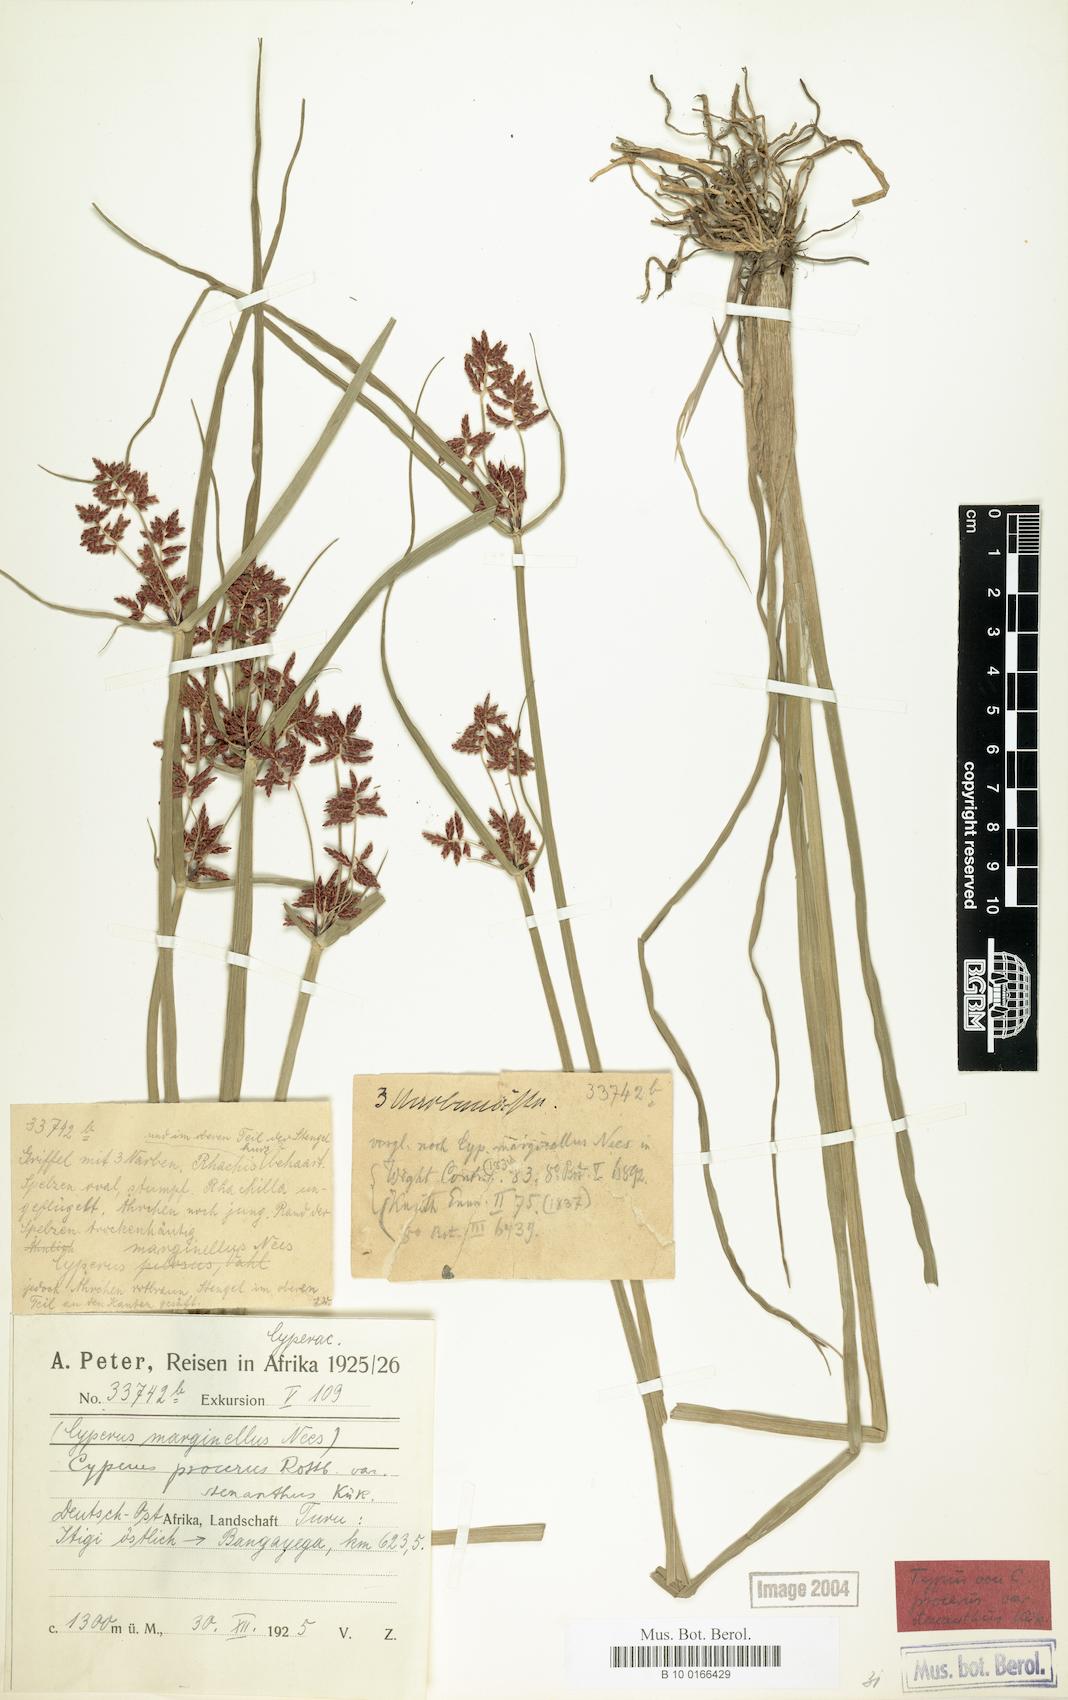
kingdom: Plantae
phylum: Tracheophyta
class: Liliopsida
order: Poales
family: Cyperaceae
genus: Cyperus
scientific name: Cyperus procerus
